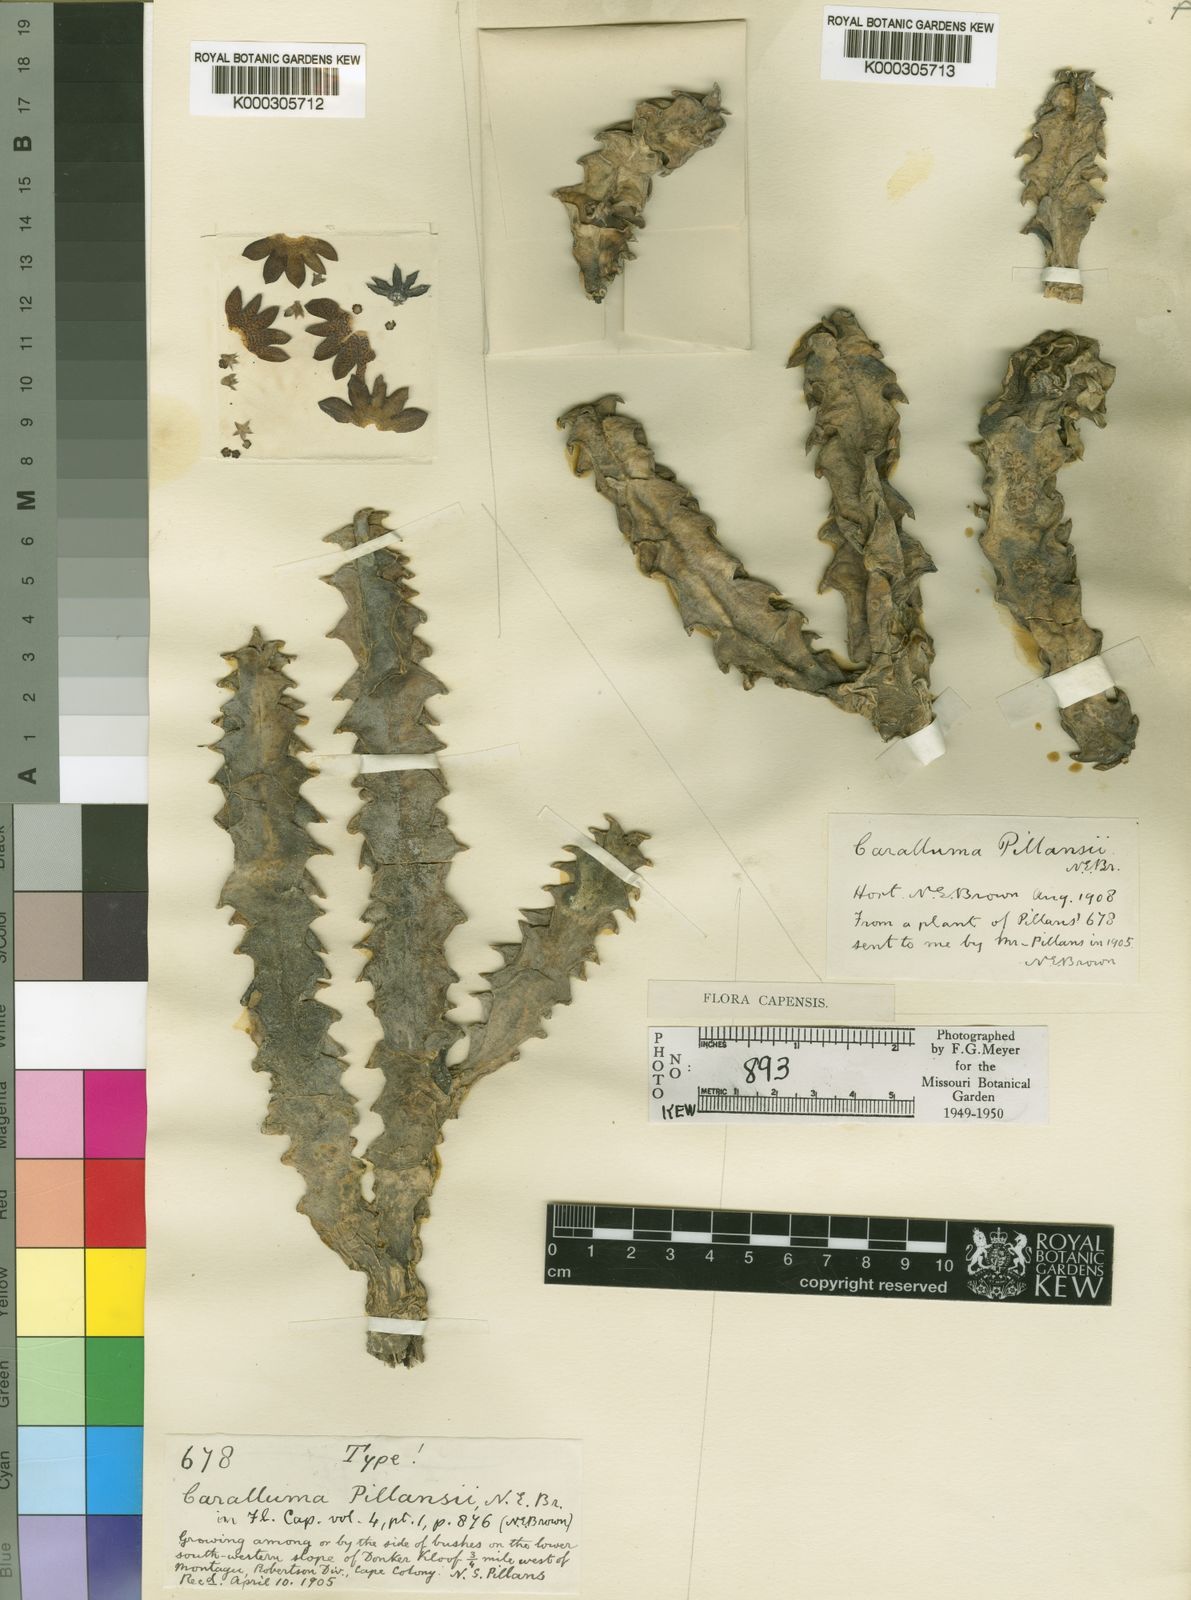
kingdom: Plantae
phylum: Tracheophyta
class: Magnoliopsida
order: Gentianales
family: Apocynaceae
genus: Ceropegia
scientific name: Ceropegia nevillei
